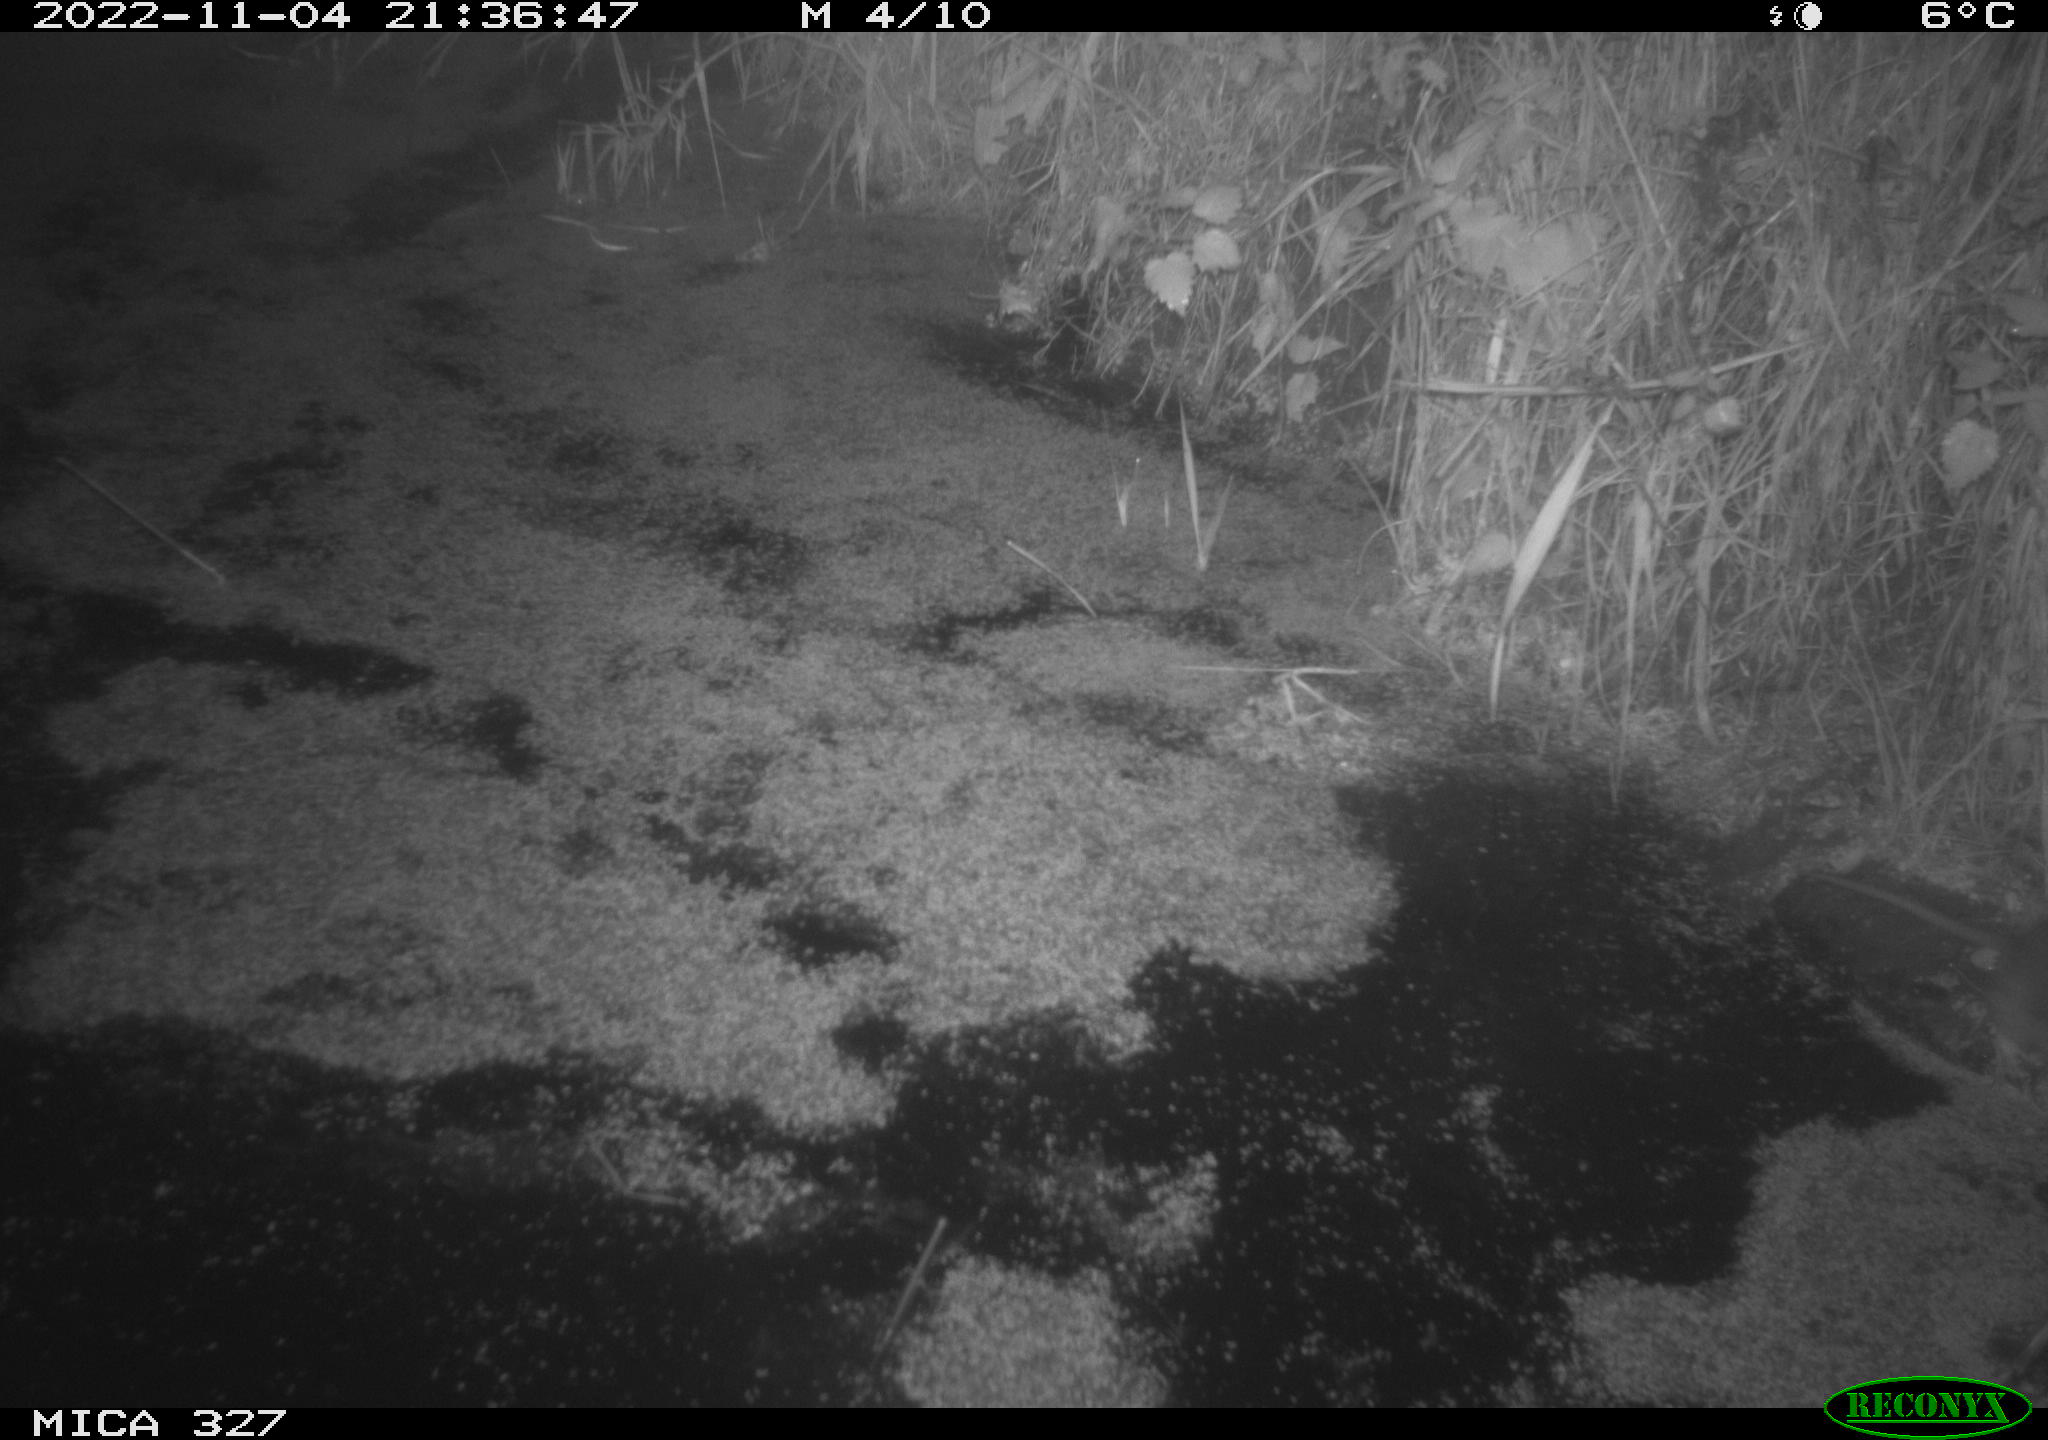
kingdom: Animalia
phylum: Chordata
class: Mammalia
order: Rodentia
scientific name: Rodentia
